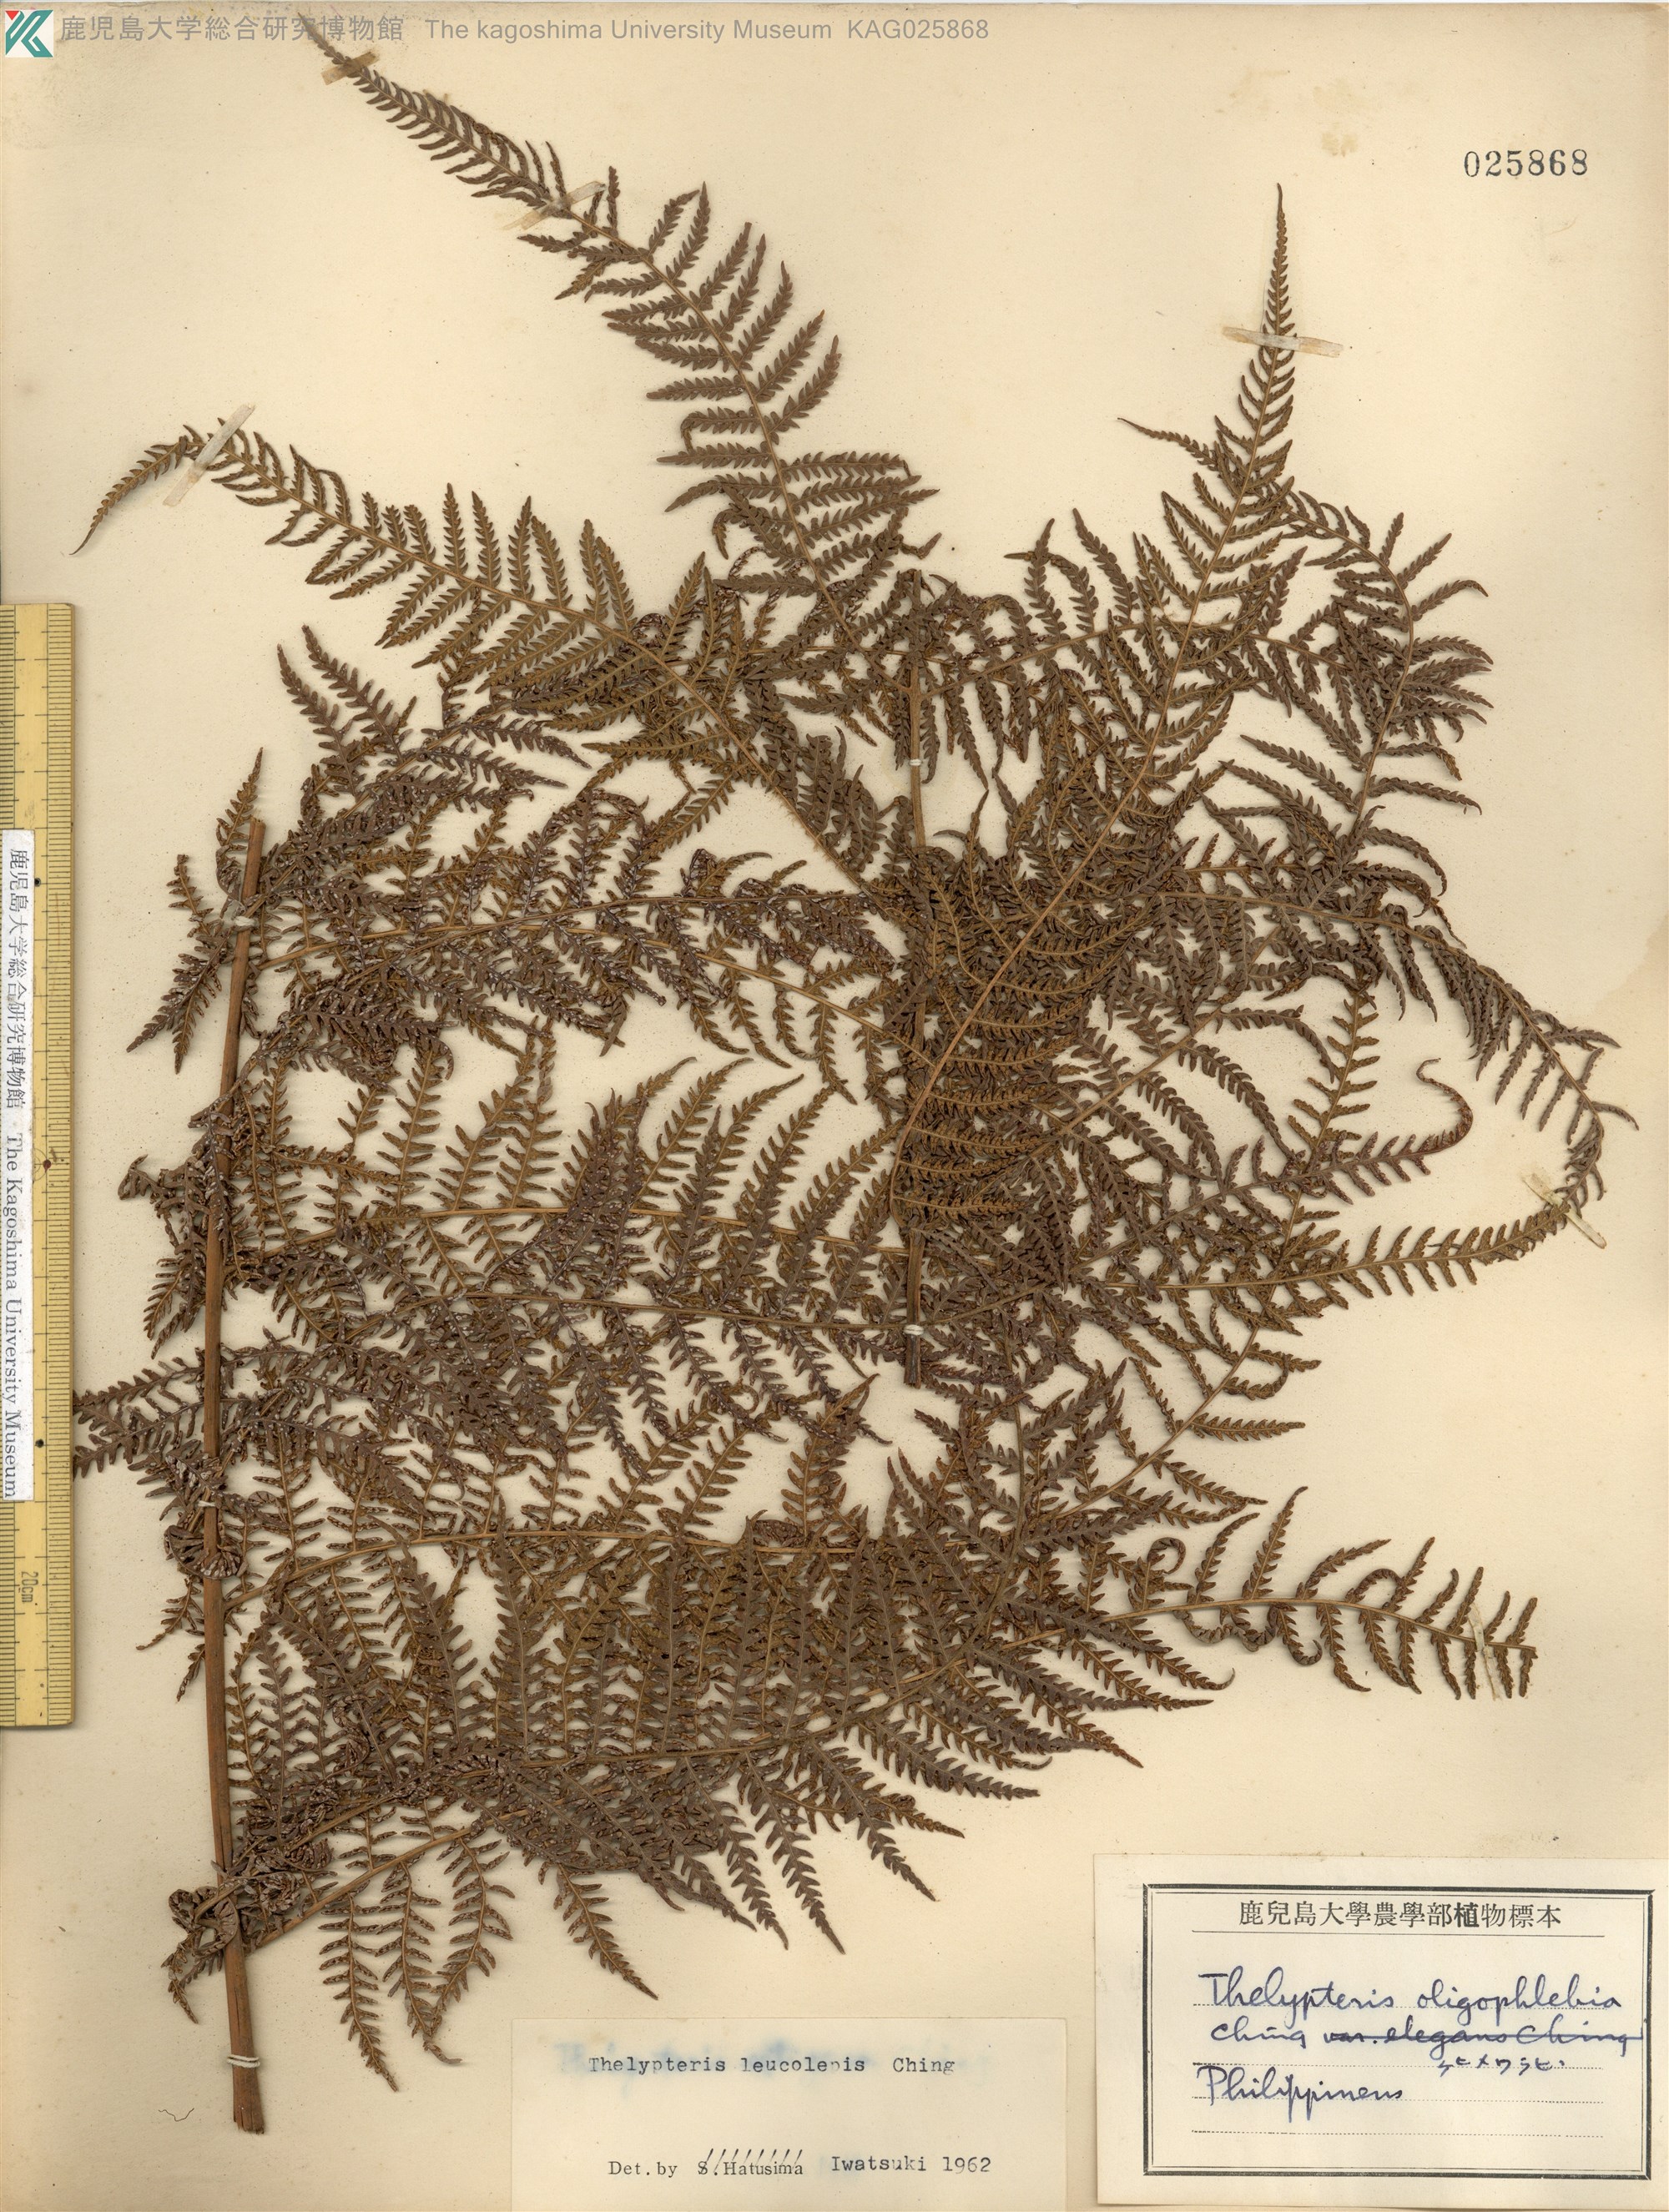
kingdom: Plantae
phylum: Tracheophyta
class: Polypodiopsida
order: Polypodiales
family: Thelypteridaceae
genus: Macrothelypteris
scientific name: Macrothelypteris polypodioides
